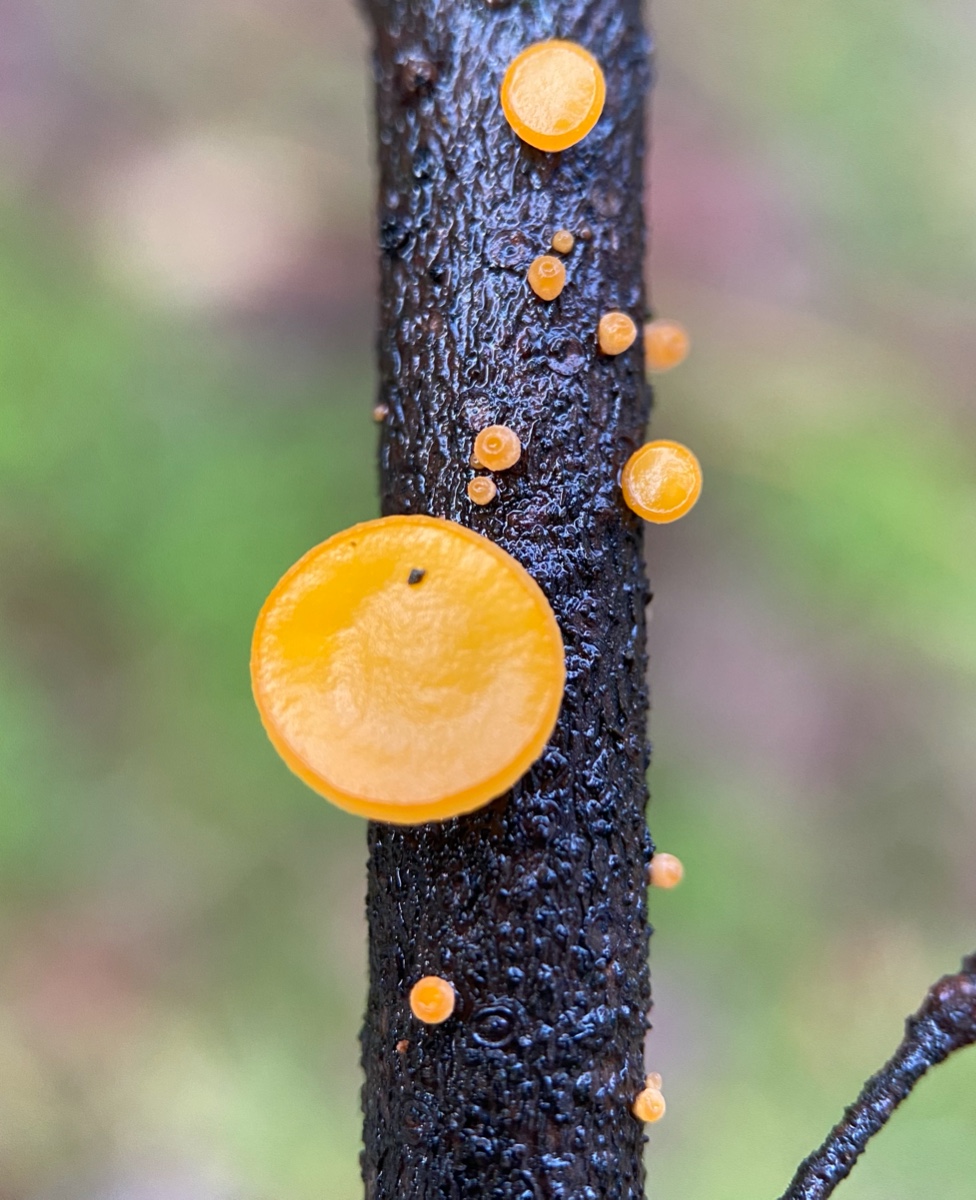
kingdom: Fungi
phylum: Ascomycota
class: Pezizomycetes
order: Pezizales
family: Sarcoscyphaceae
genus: Pithya
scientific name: Pithya vulgaris
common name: stor dukatbæger
